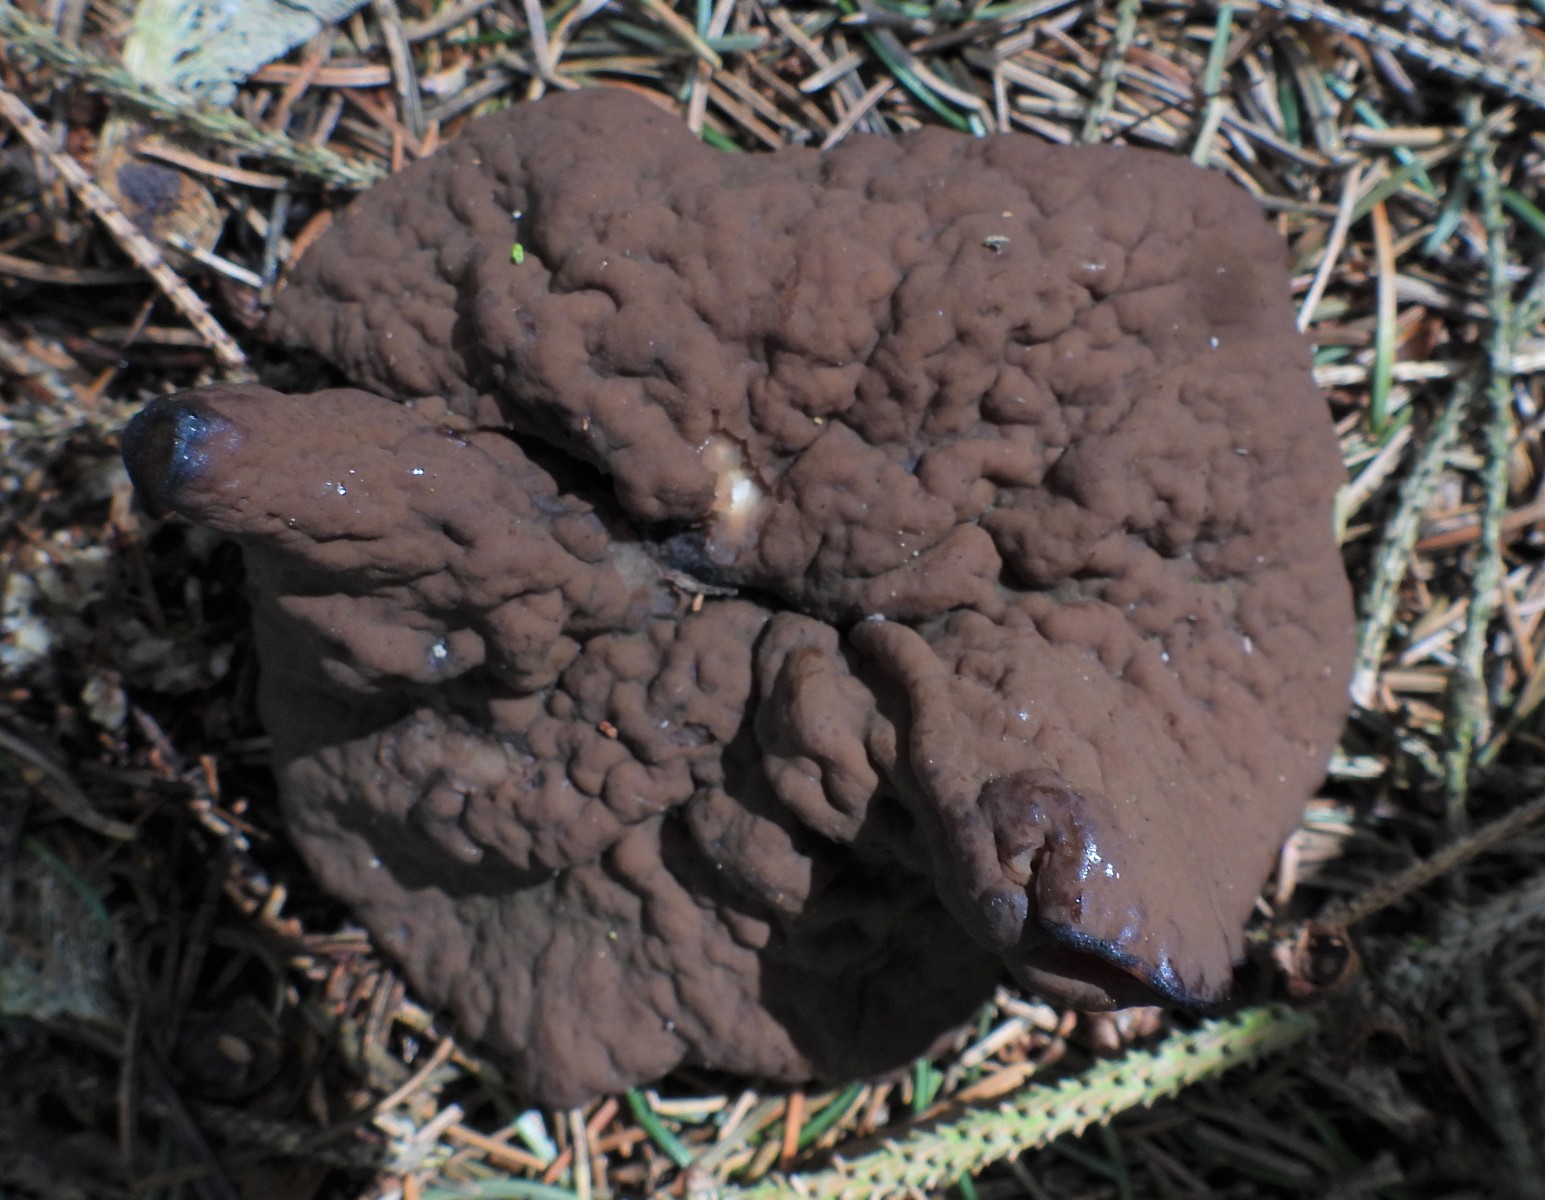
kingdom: Fungi
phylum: Ascomycota
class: Pezizomycetes
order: Pezizales
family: Discinaceae
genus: Discina
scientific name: Discina ancilis
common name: udbredt stenmorkel
